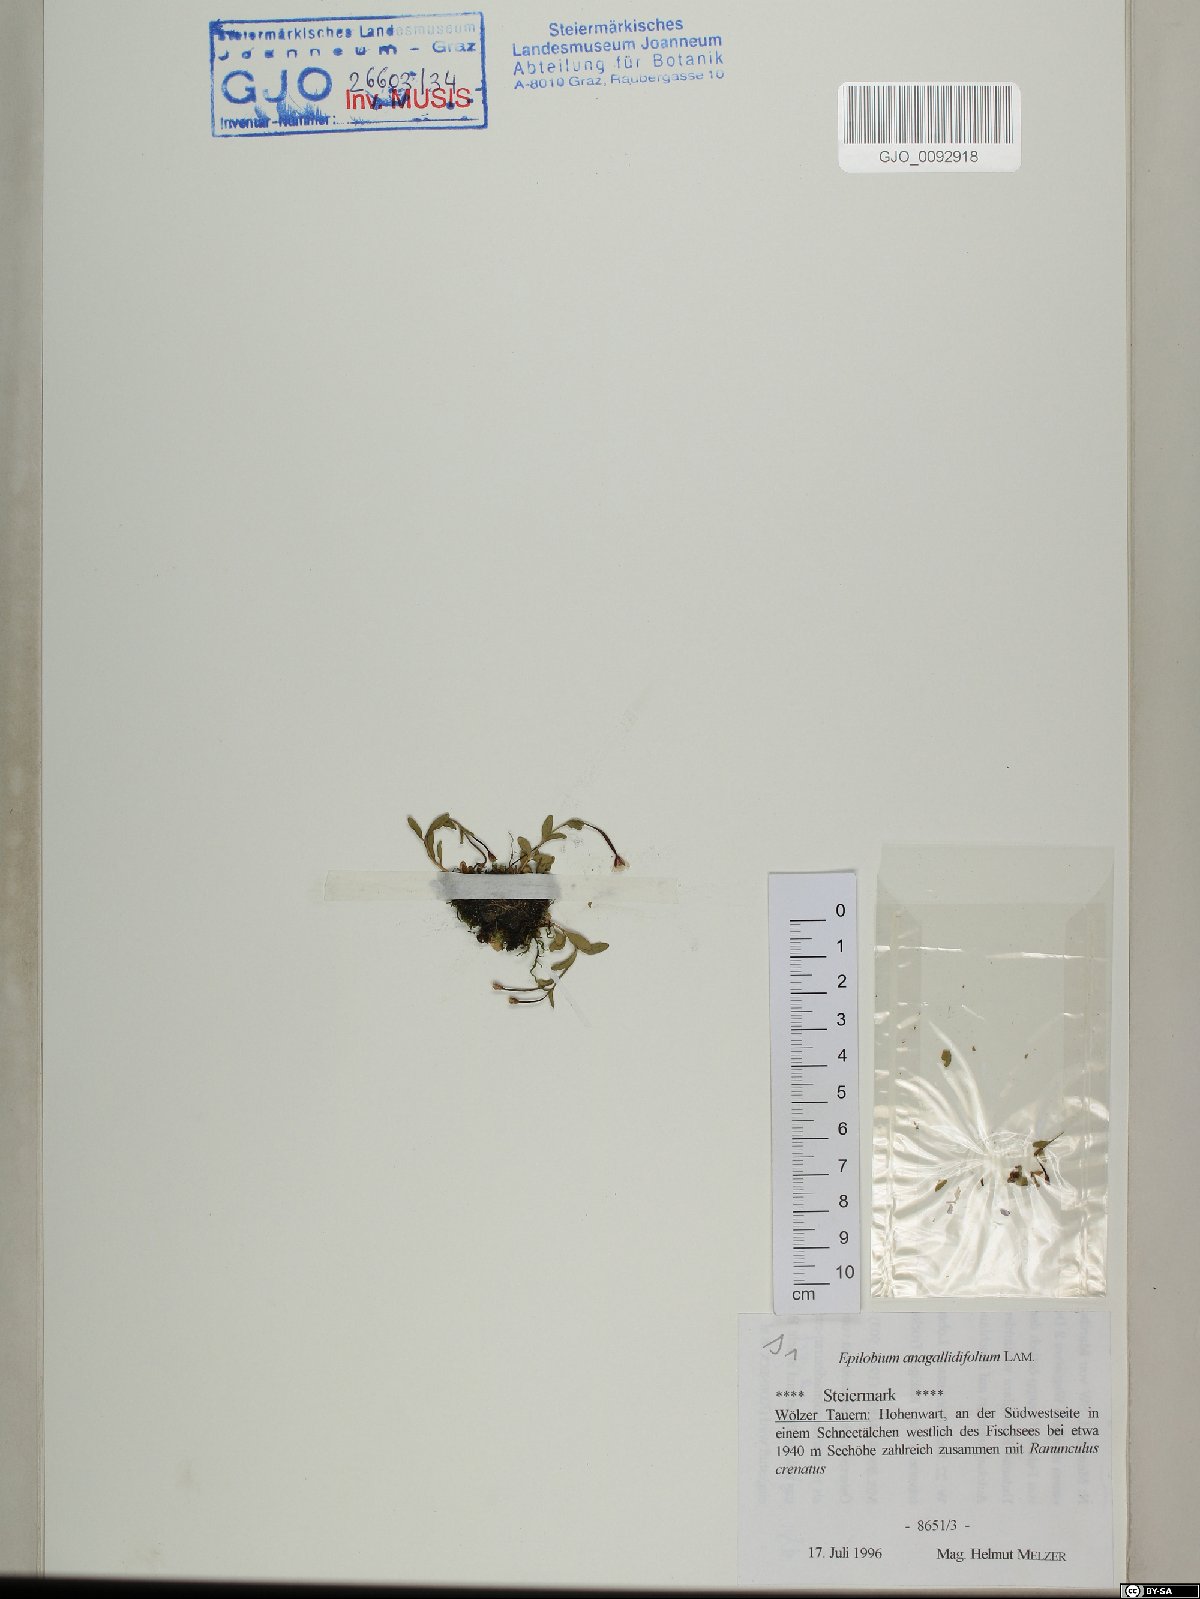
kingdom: Plantae
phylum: Tracheophyta
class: Magnoliopsida
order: Myrtales
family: Onagraceae
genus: Epilobium
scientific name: Epilobium anagallidifolium
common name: Alpine willowherb
